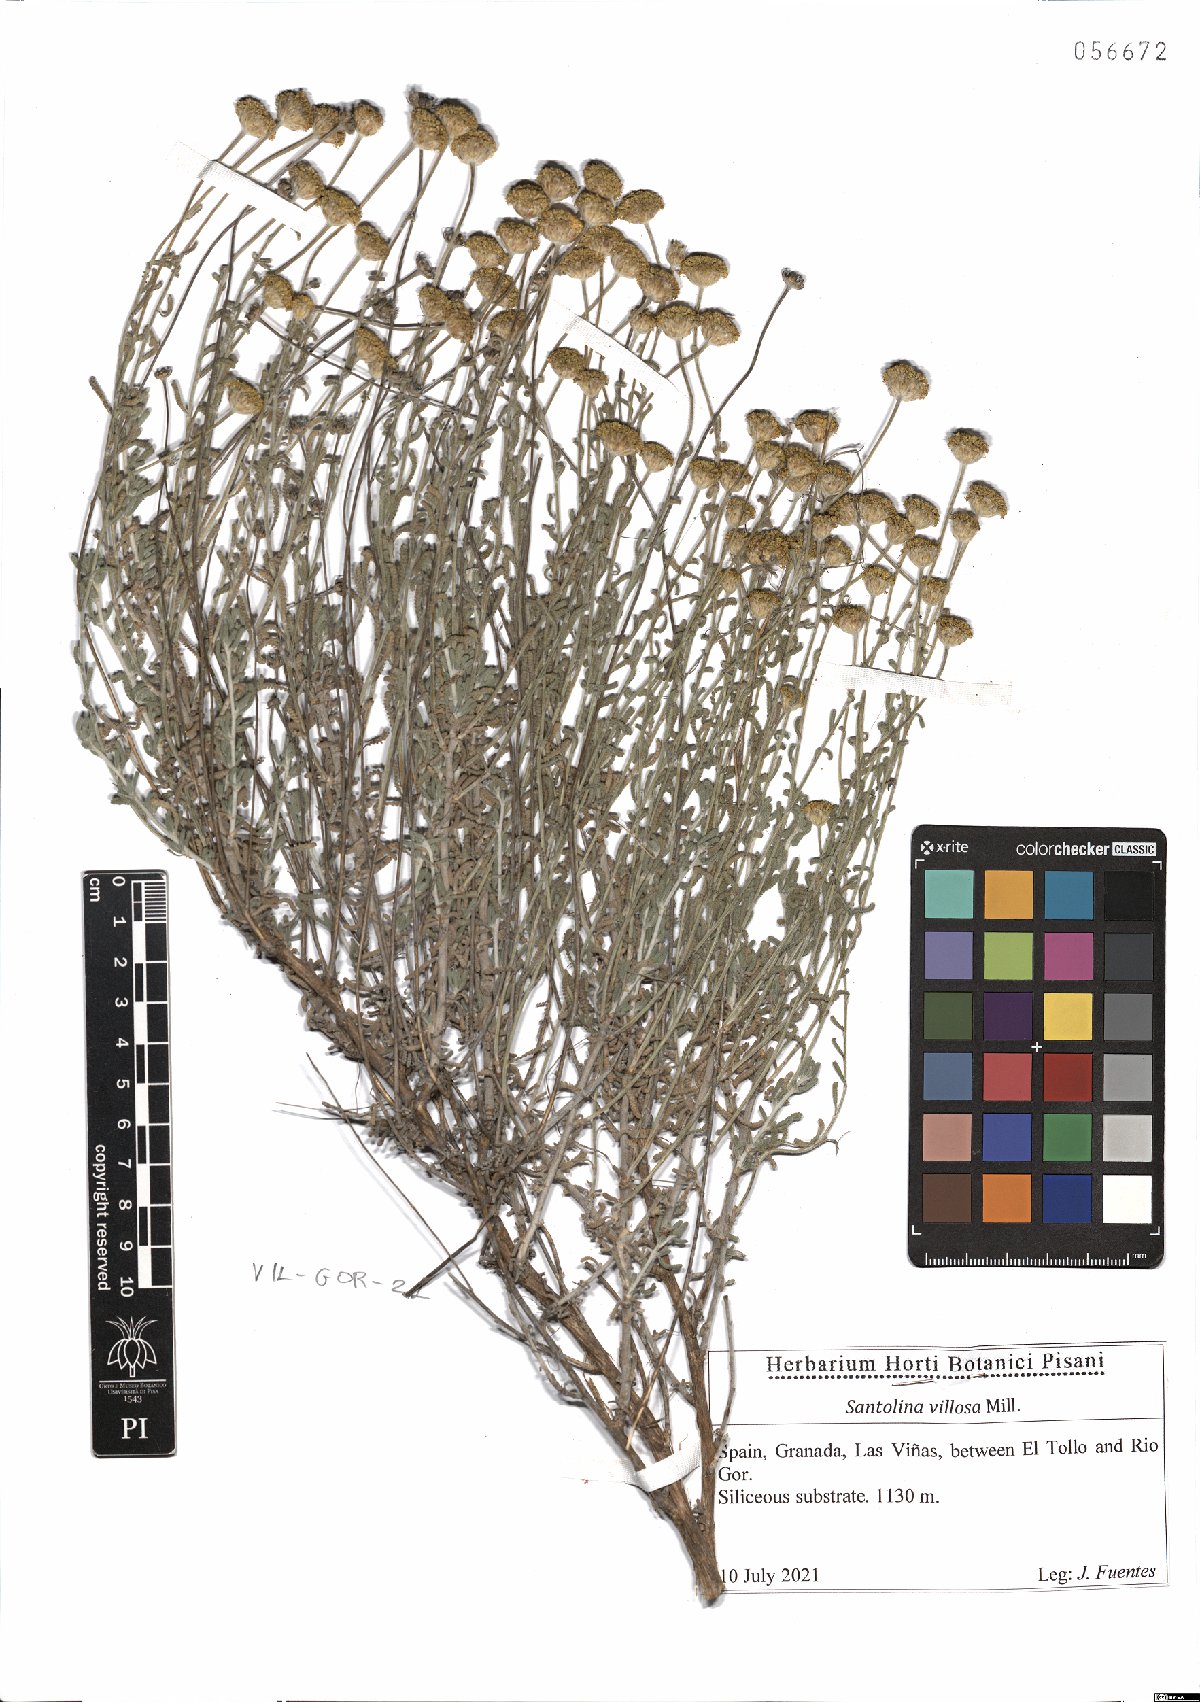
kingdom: Plantae
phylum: Tracheophyta
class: Magnoliopsida
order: Asterales
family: Asteraceae
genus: Santolina
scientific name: Santolina chamaecyparissus
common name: Lavender-cotton
